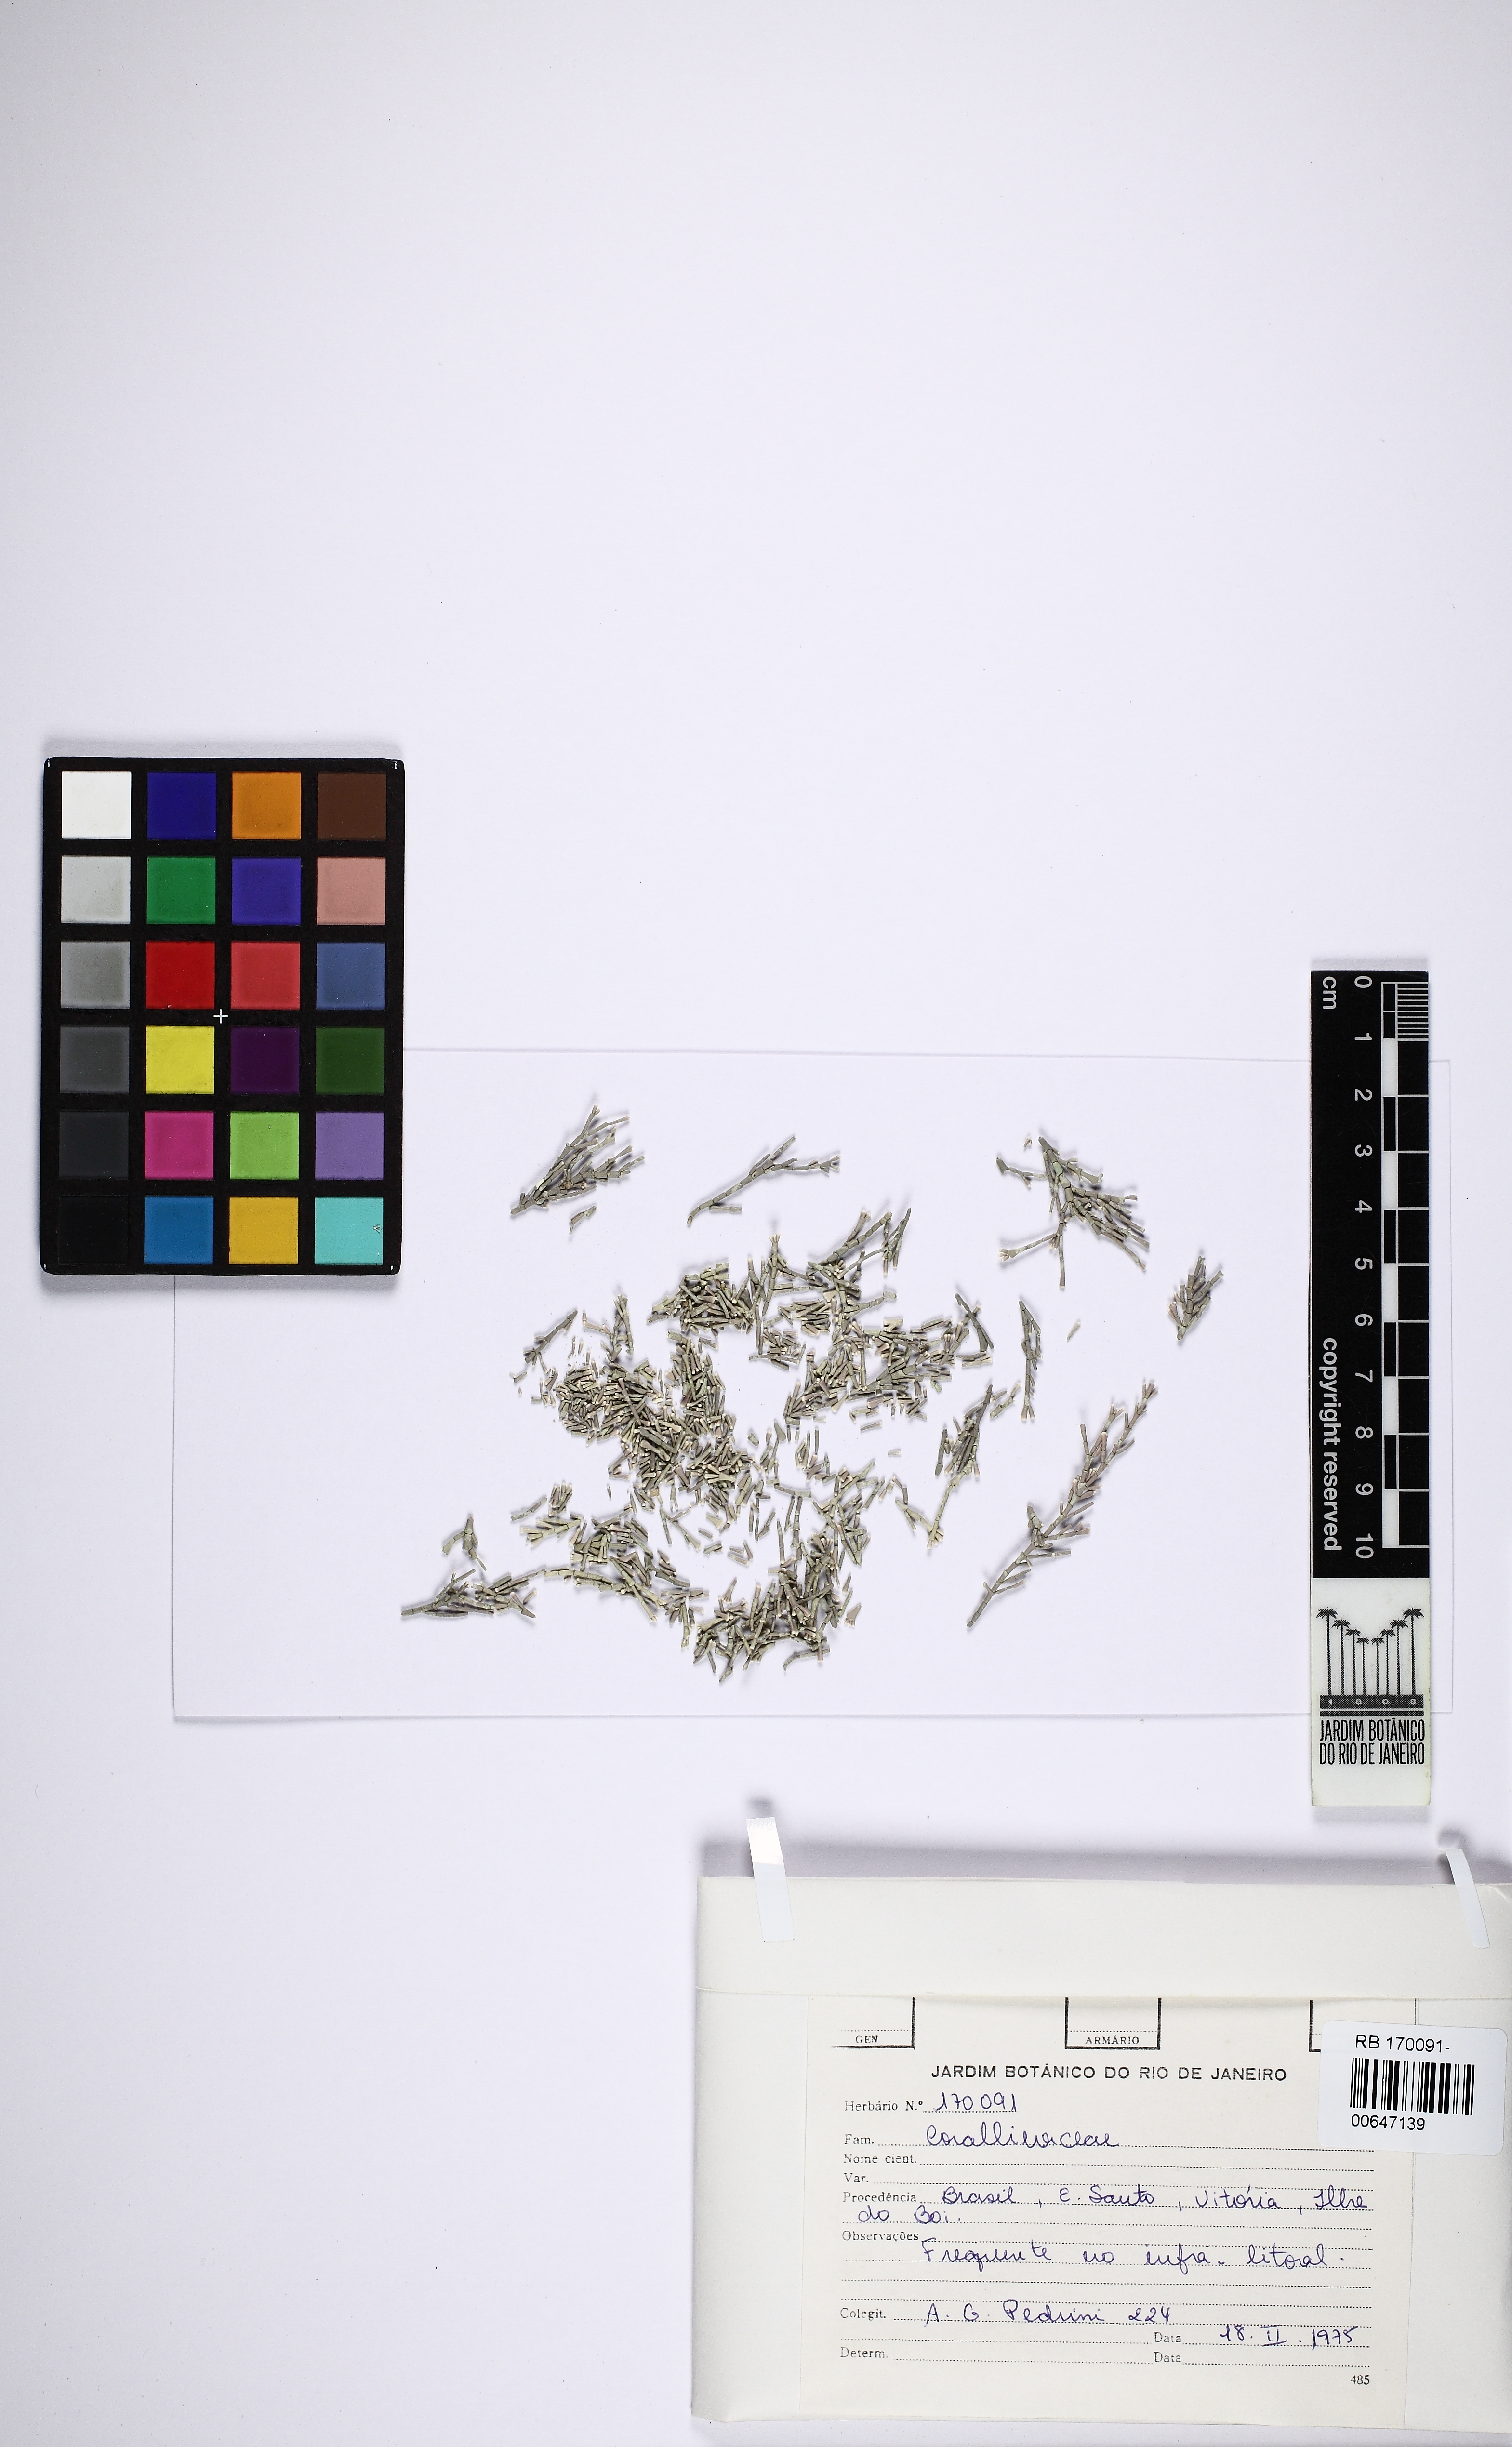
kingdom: Plantae
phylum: Rhodophyta
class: Florideophyceae
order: Corallinales
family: Corallinaceae
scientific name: Corallinaceae
